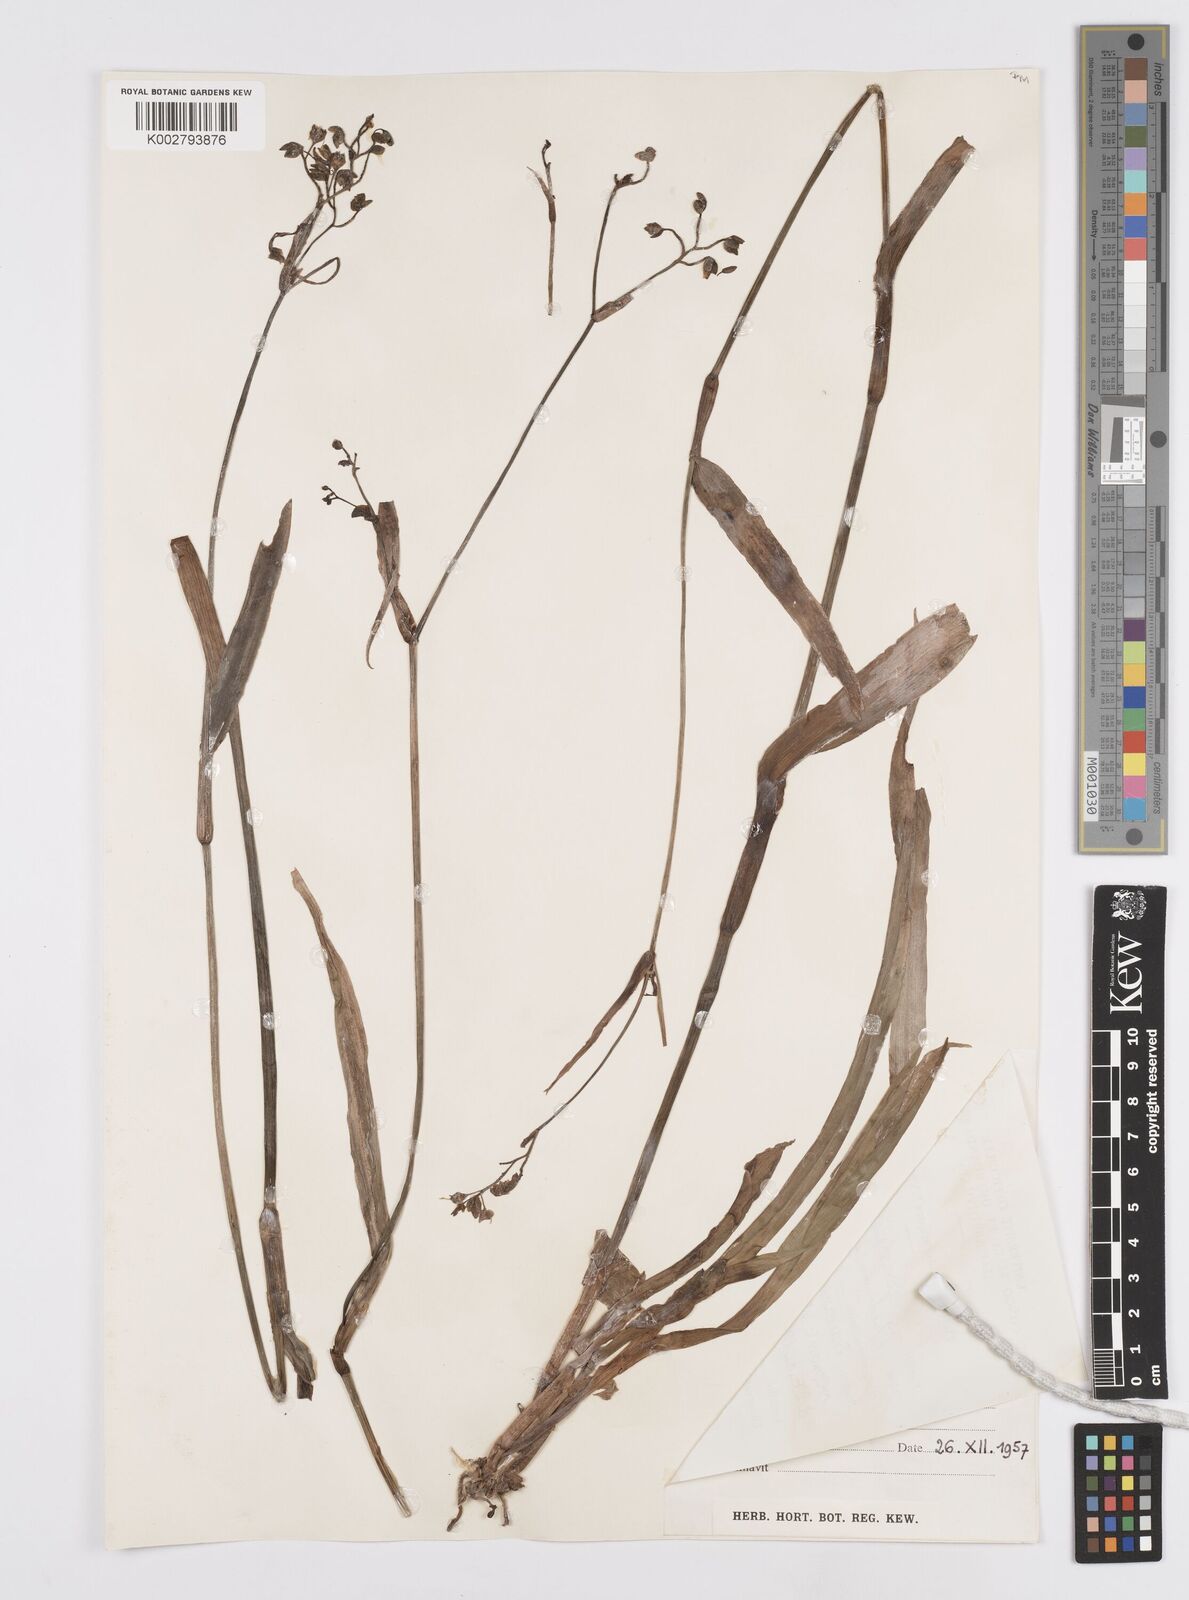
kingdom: Plantae
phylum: Tracheophyta
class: Liliopsida
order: Commelinales
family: Commelinaceae
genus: Murdannia
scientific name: Murdannia simplex
